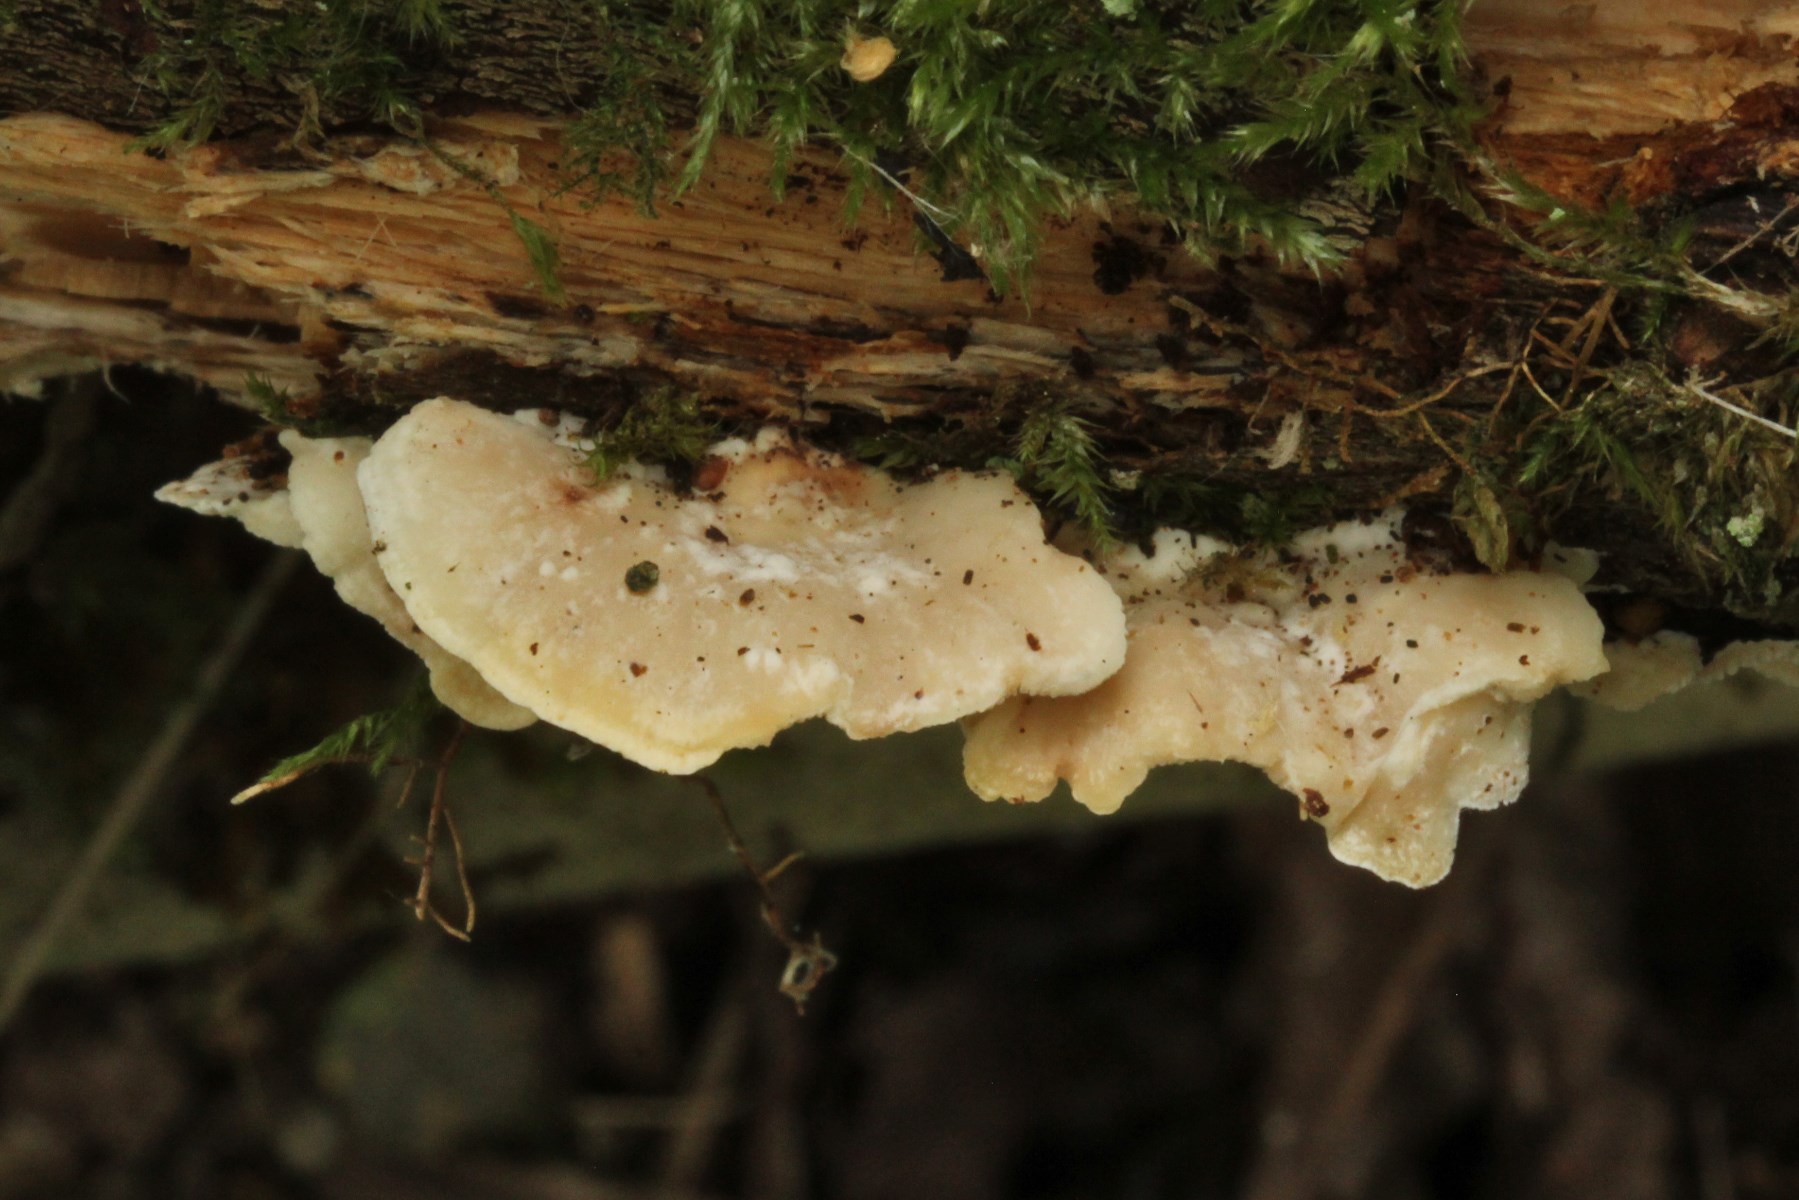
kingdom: Fungi
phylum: Basidiomycota
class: Agaricomycetes
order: Polyporales
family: Steccherinaceae
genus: Antrodiella
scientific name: Antrodiella
